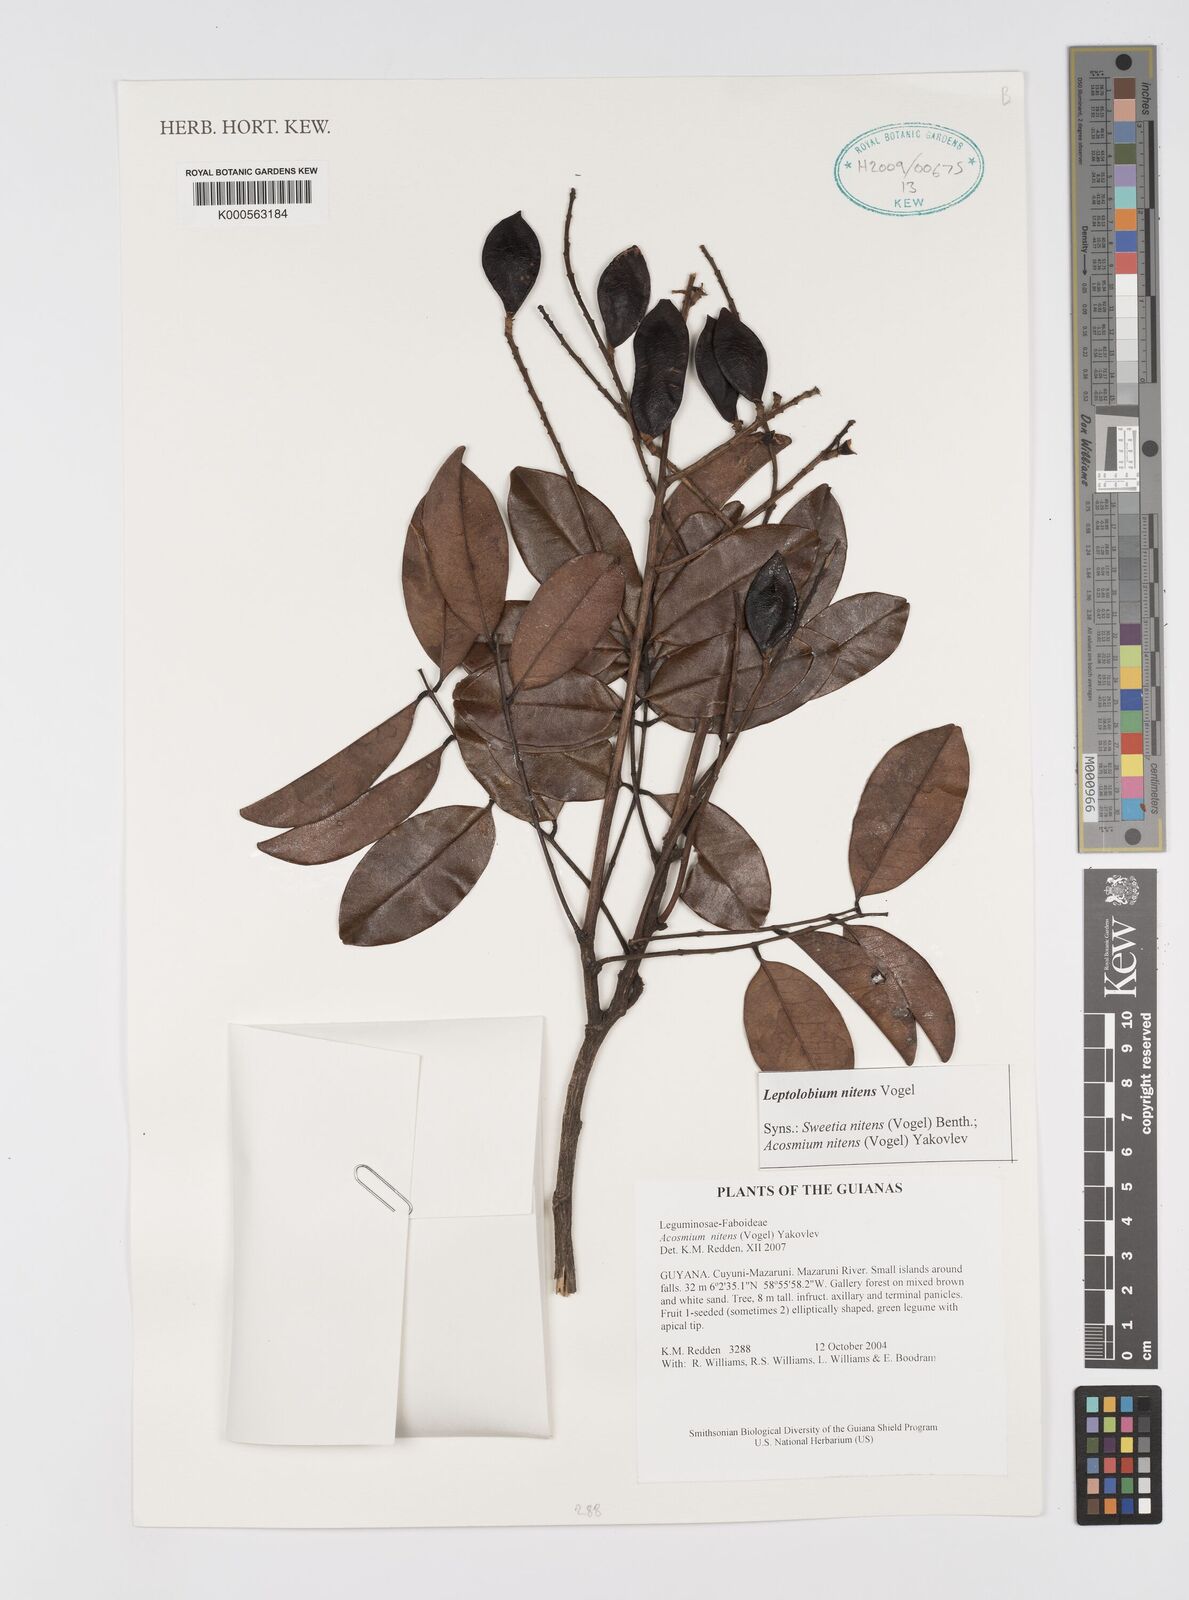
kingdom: Plantae
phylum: Tracheophyta
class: Magnoliopsida
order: Fabales
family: Fabaceae
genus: Leptolobium
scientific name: Leptolobium nitens
